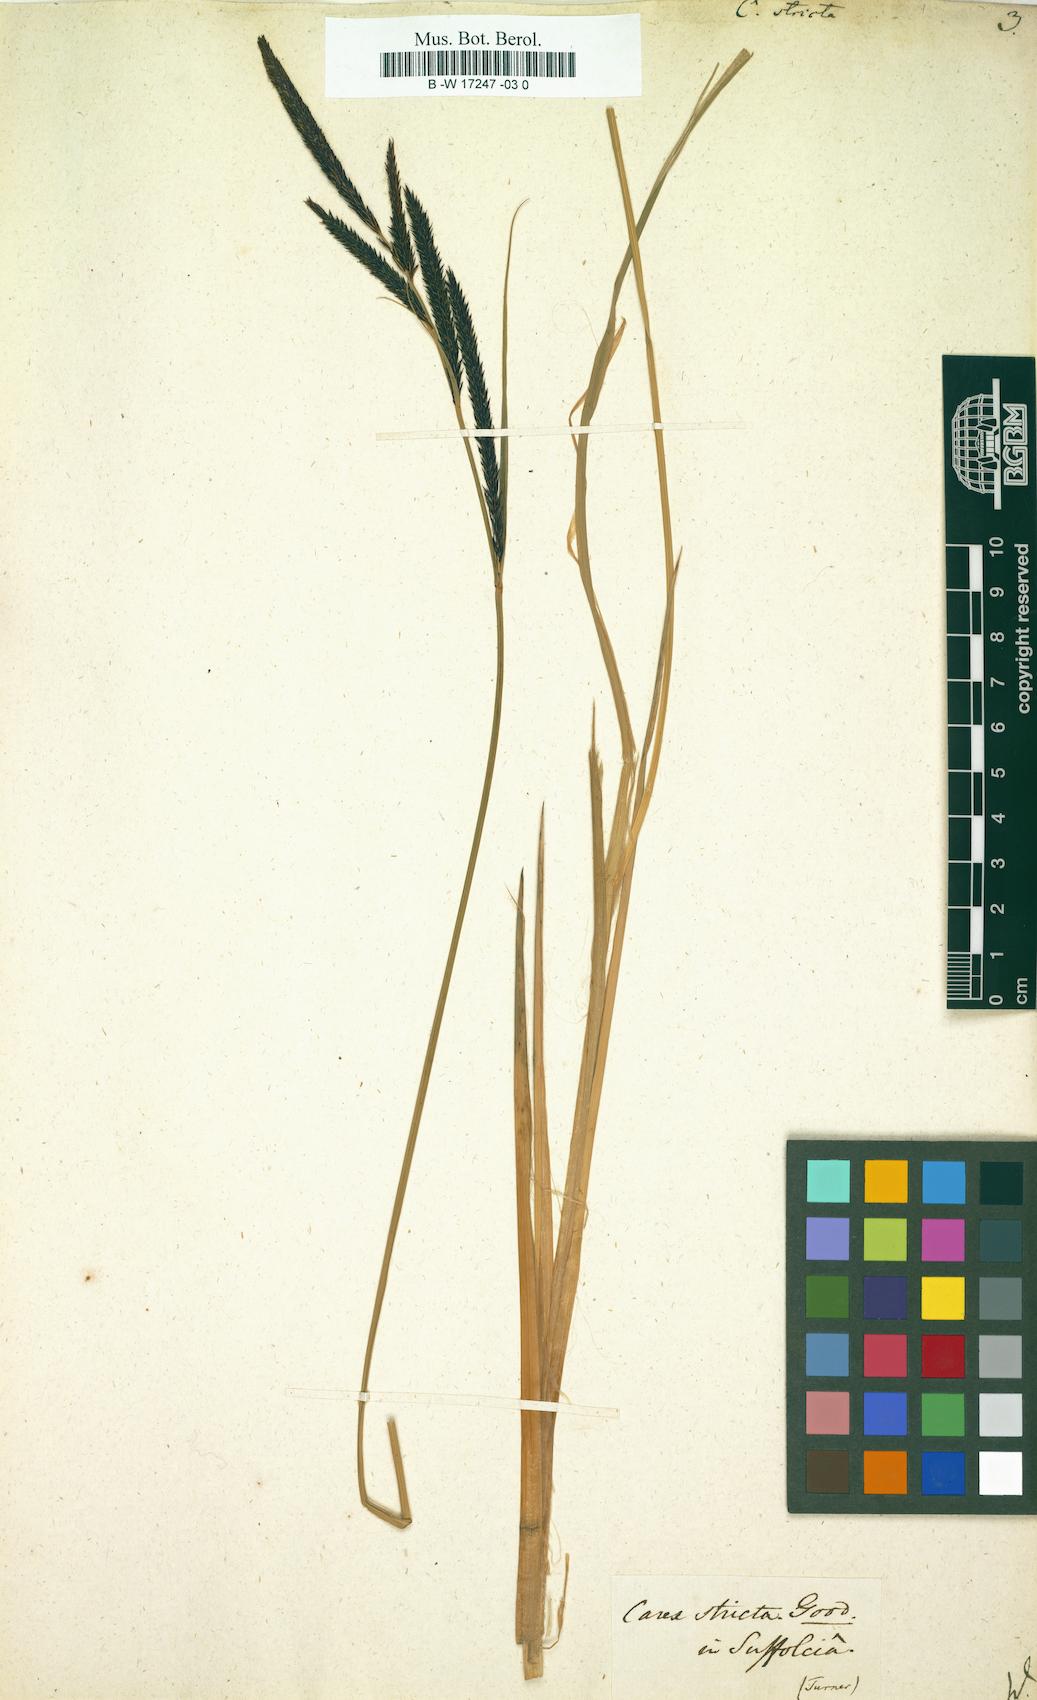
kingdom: Plantae
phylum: Tracheophyta
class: Liliopsida
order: Poales
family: Cyperaceae
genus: Carex
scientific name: Carex stricta
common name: Hummock sedge
